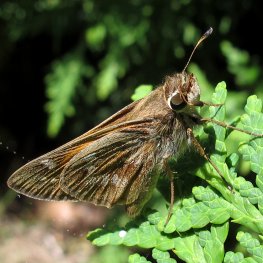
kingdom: Animalia
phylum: Arthropoda
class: Insecta
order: Lepidoptera
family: Hesperiidae
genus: Atalopedes
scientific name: Atalopedes campestris
